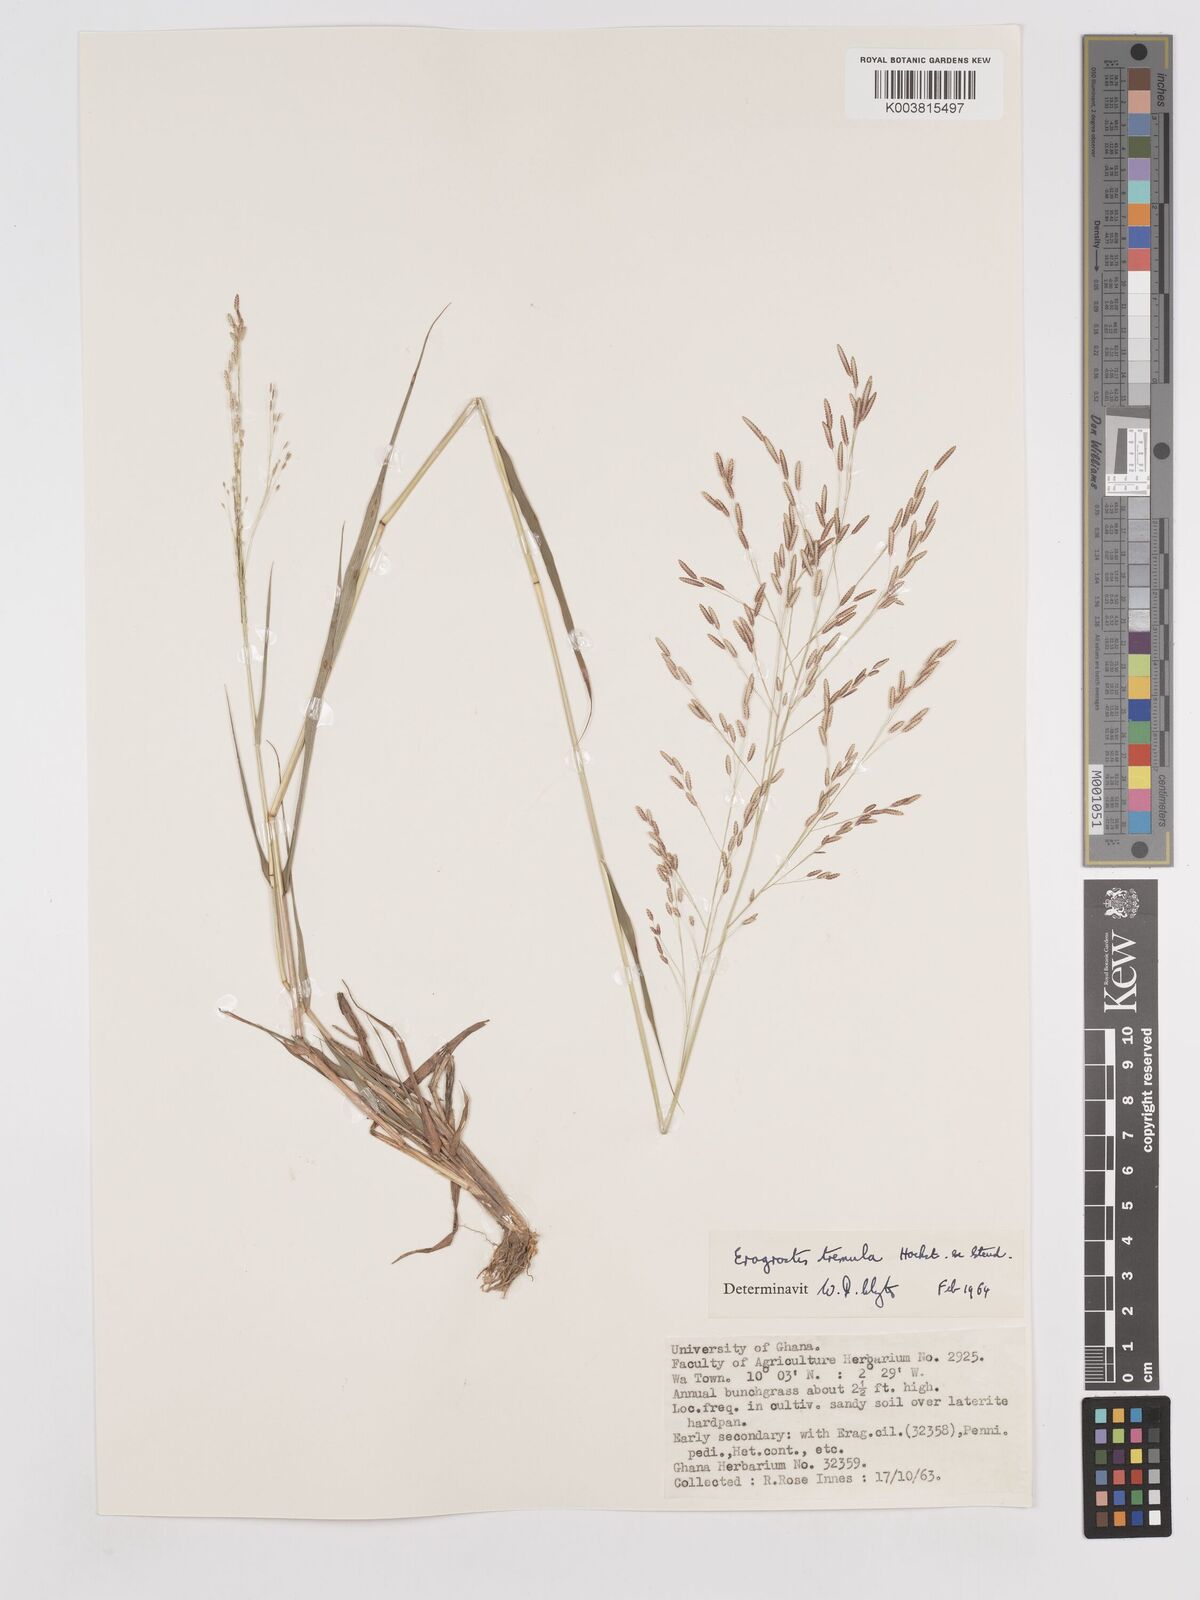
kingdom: Plantae
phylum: Tracheophyta
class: Liliopsida
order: Poales
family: Poaceae
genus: Eragrostis
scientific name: Eragrostis tremula
